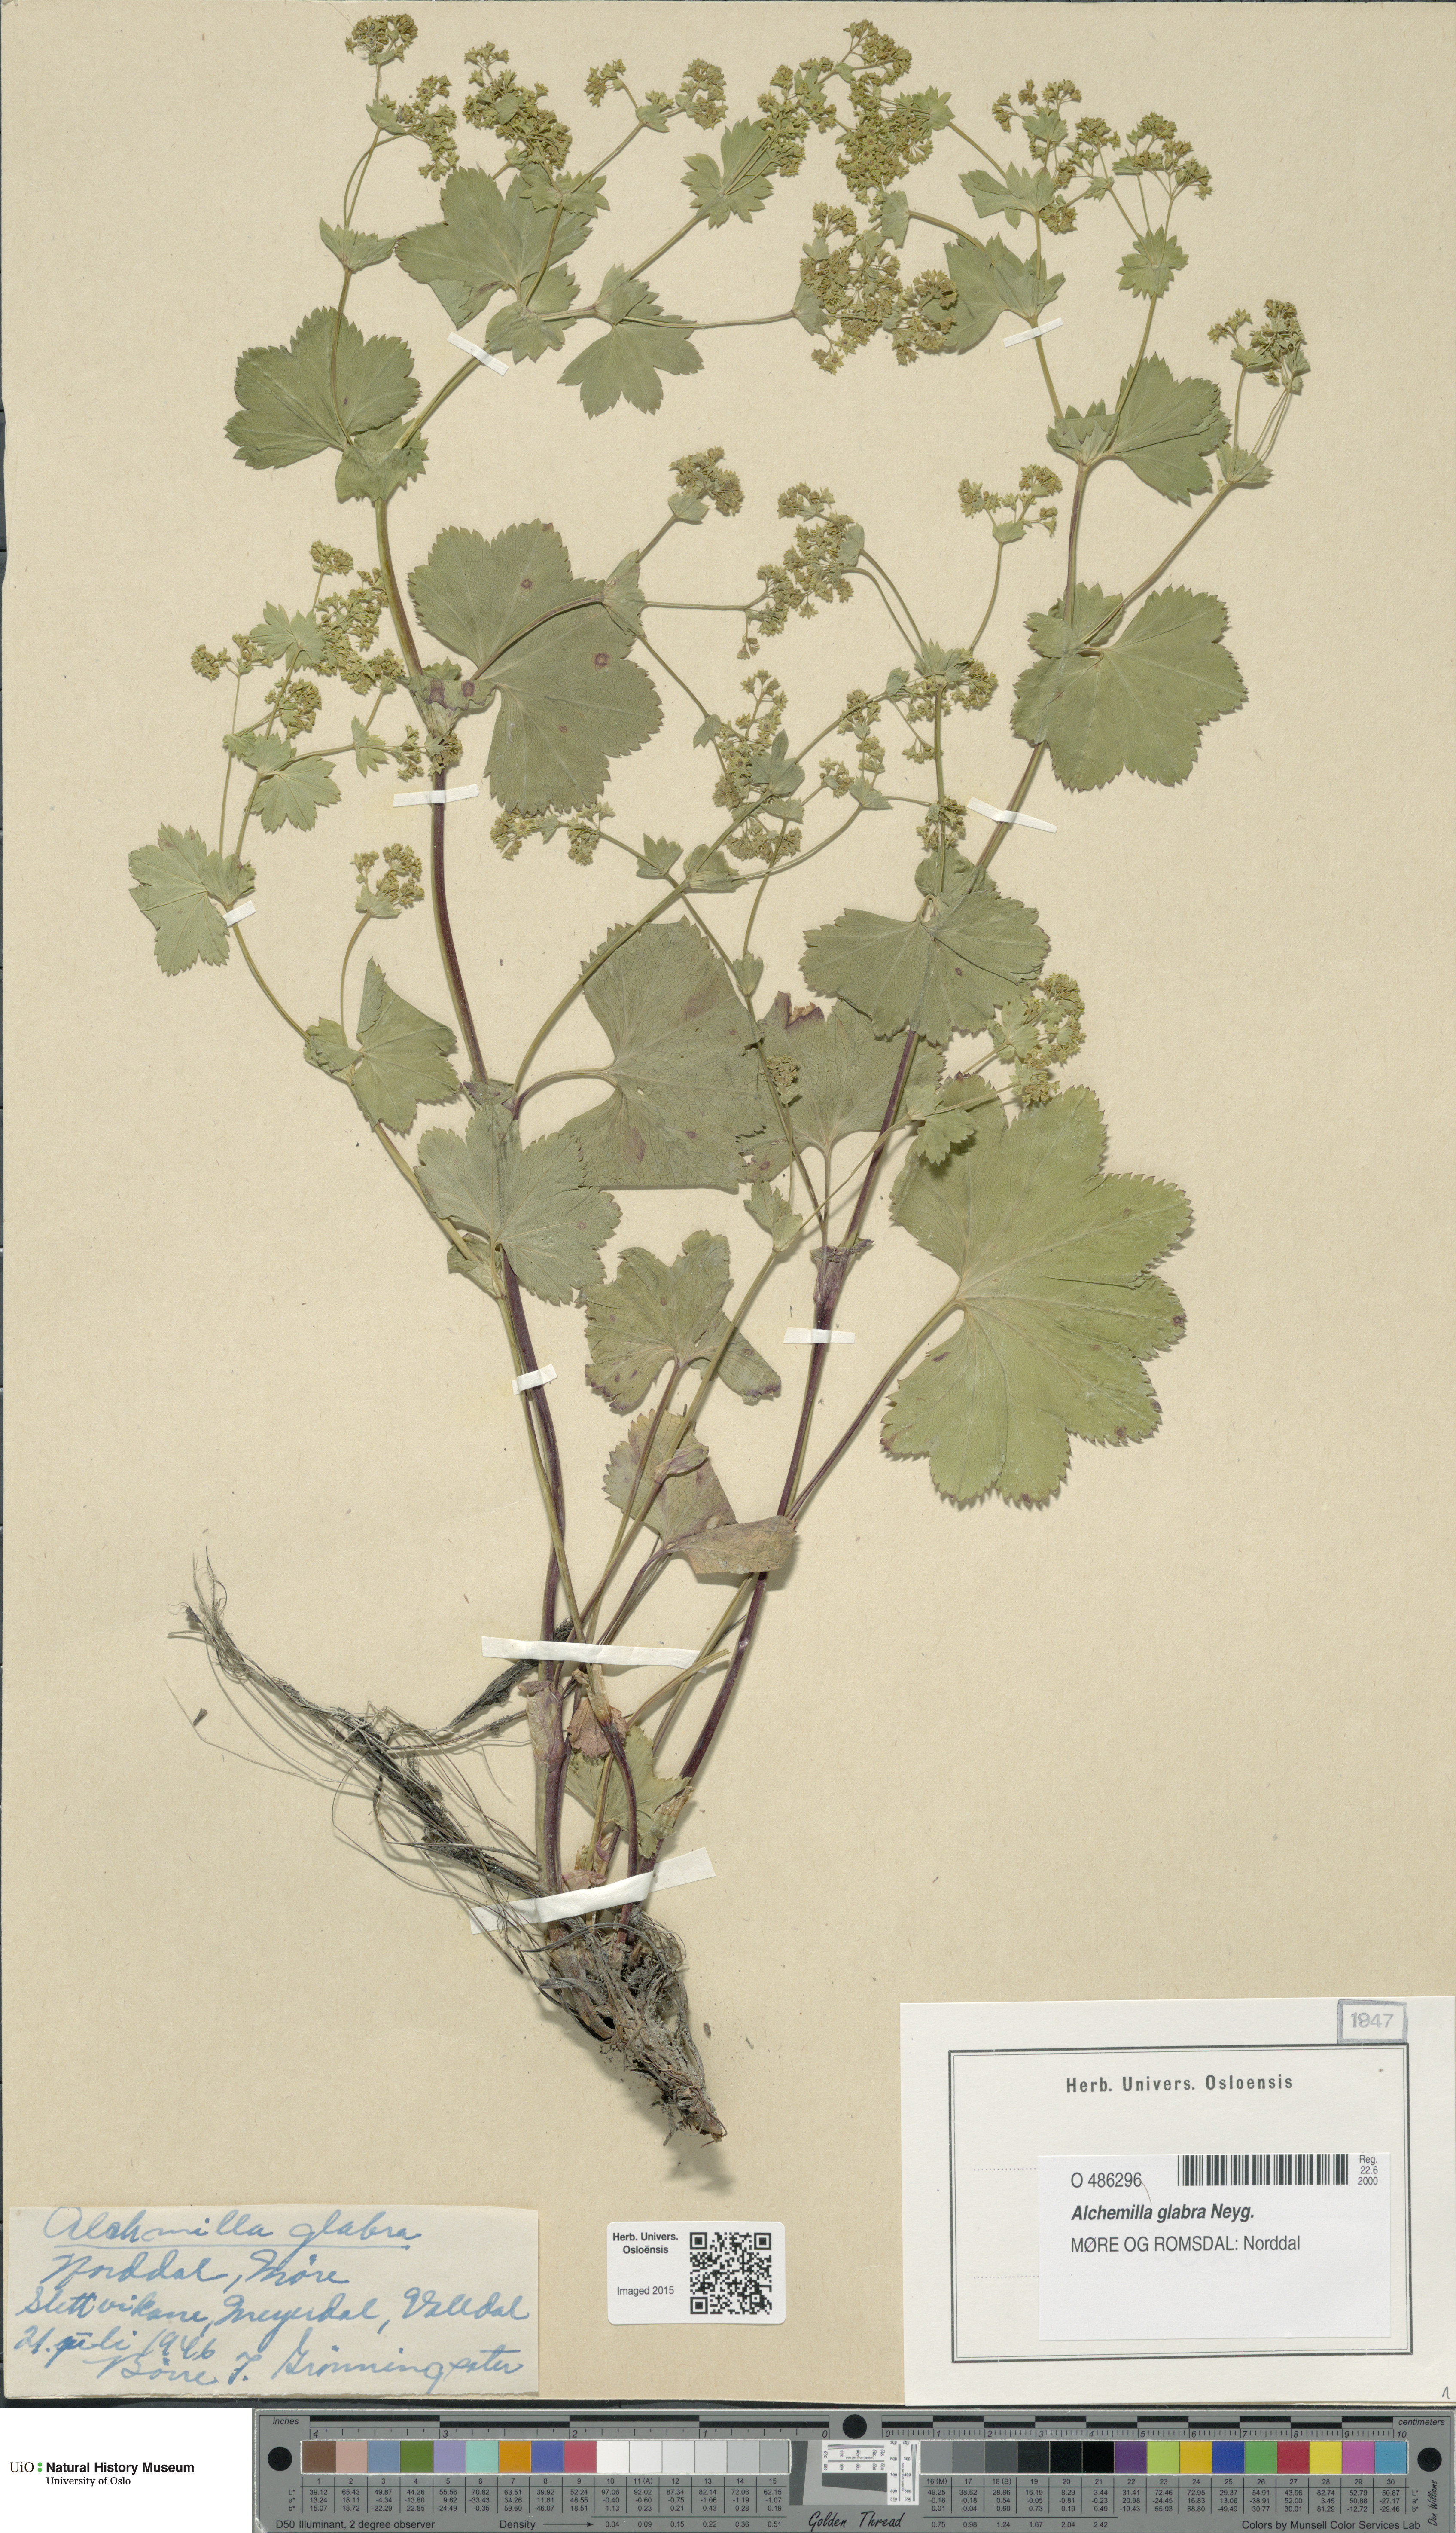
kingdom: Plantae
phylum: Tracheophyta
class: Magnoliopsida
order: Rosales
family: Rosaceae
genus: Alchemilla
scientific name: Alchemilla glabra
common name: Smooth lady's-mantle
